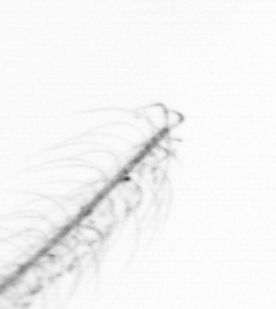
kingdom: Chromista
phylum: Ochrophyta
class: Bacillariophyceae
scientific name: Bacillariophyceae
